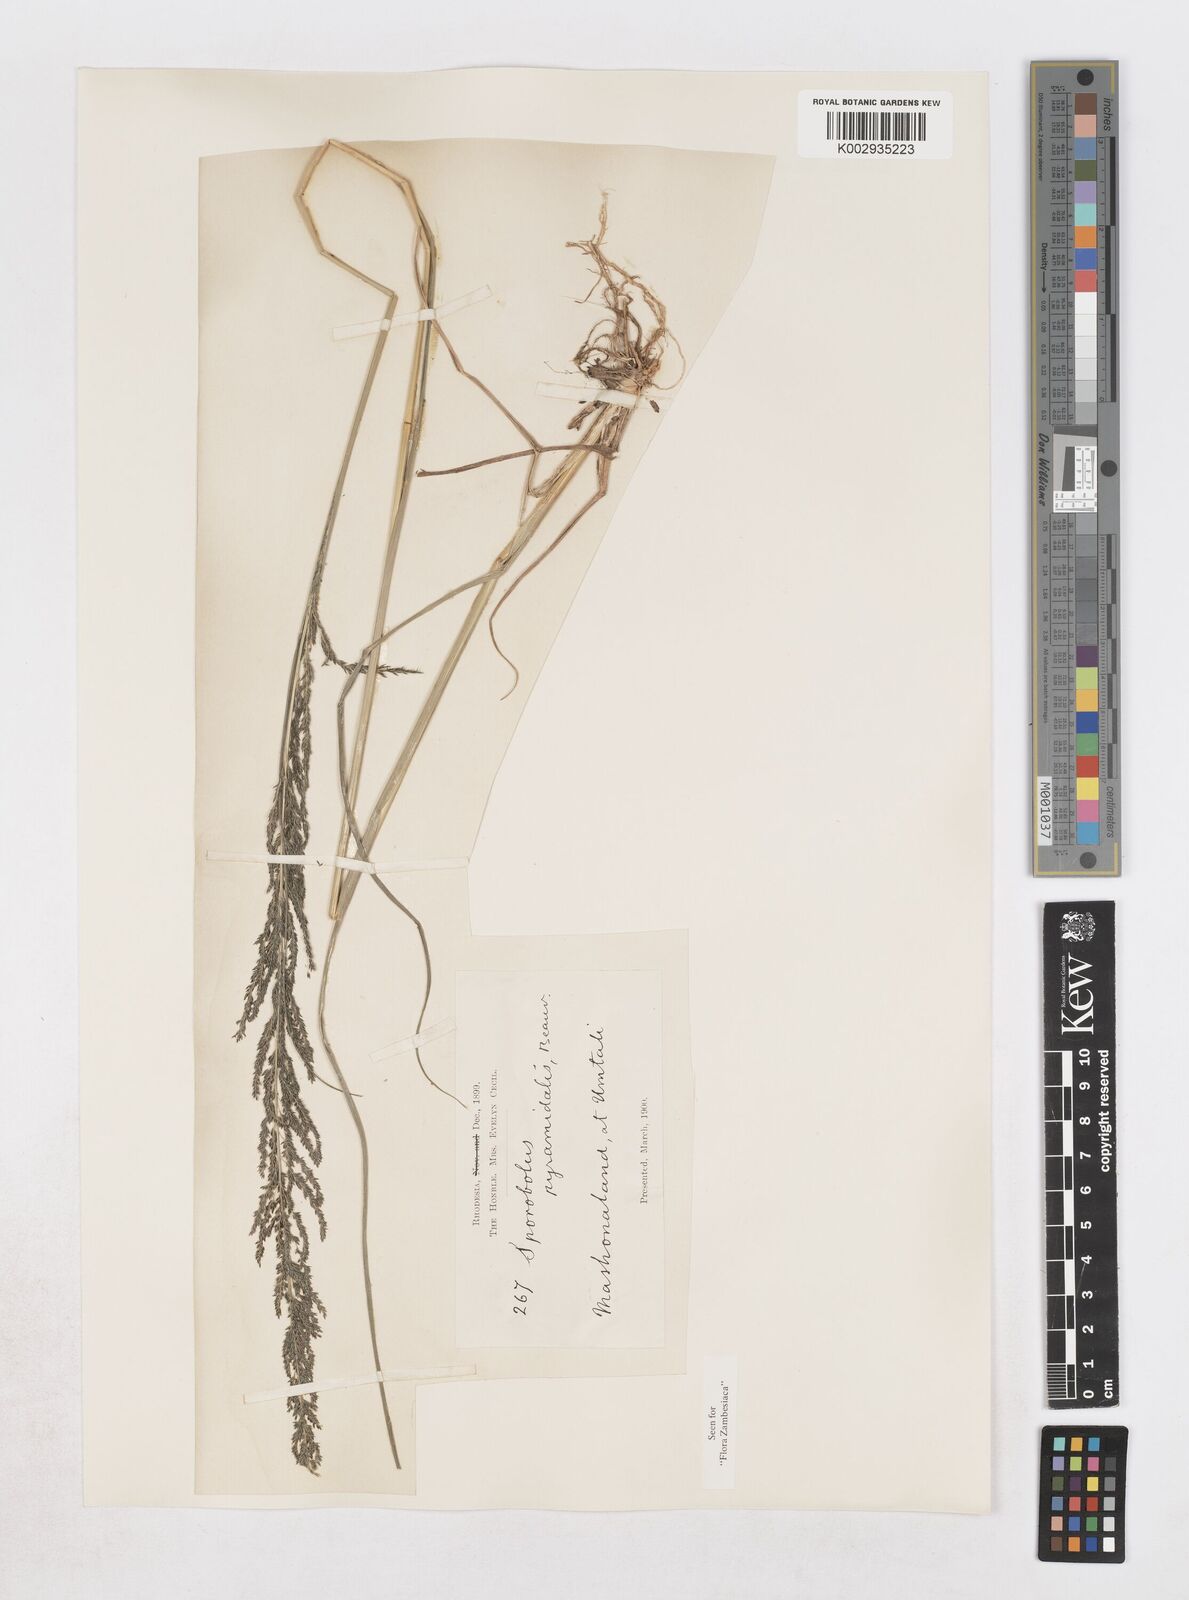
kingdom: Plantae
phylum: Tracheophyta
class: Liliopsida
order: Poales
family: Poaceae
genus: Sporobolus
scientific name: Sporobolus pyramidalis
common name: West indian dropseed
